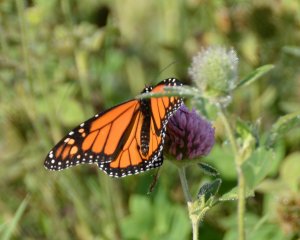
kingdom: Animalia
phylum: Arthropoda
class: Insecta
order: Lepidoptera
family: Nymphalidae
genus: Danaus
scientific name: Danaus plexippus
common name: Monarch
